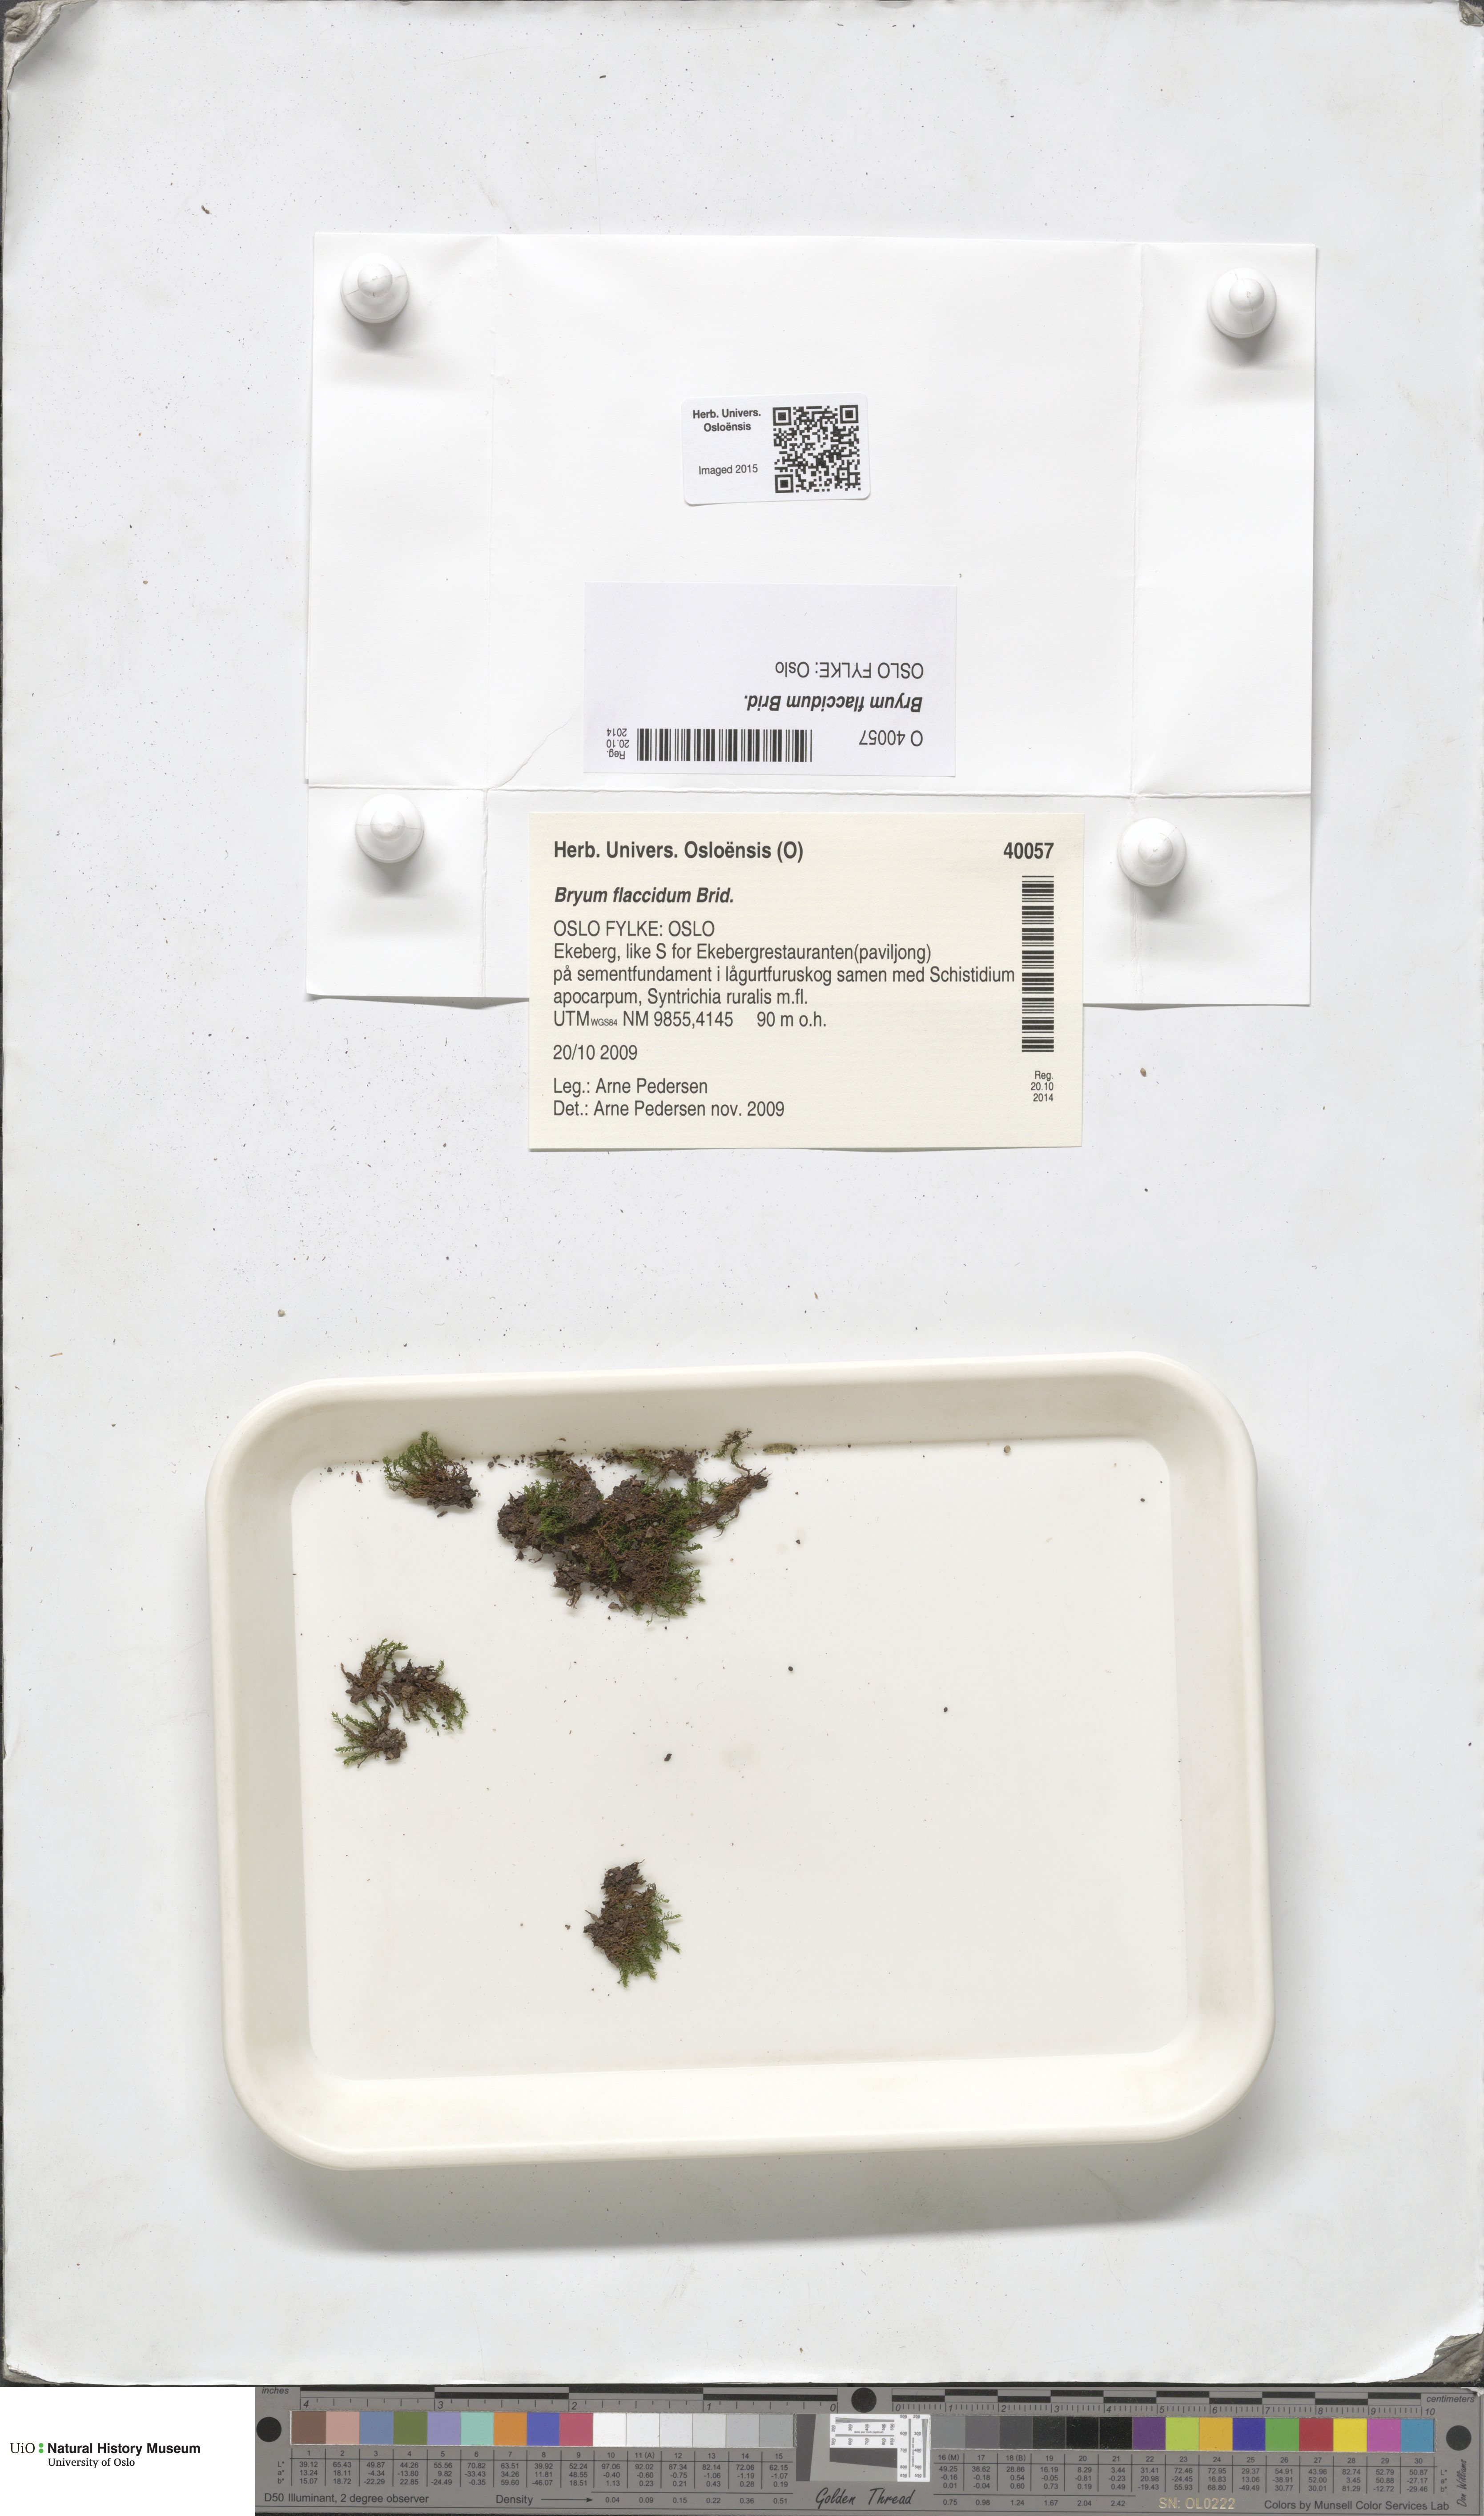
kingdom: Plantae
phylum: Bryophyta
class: Bryopsida
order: Bryales
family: Bryaceae
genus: Rosulabryum
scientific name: Rosulabryum moravicum
